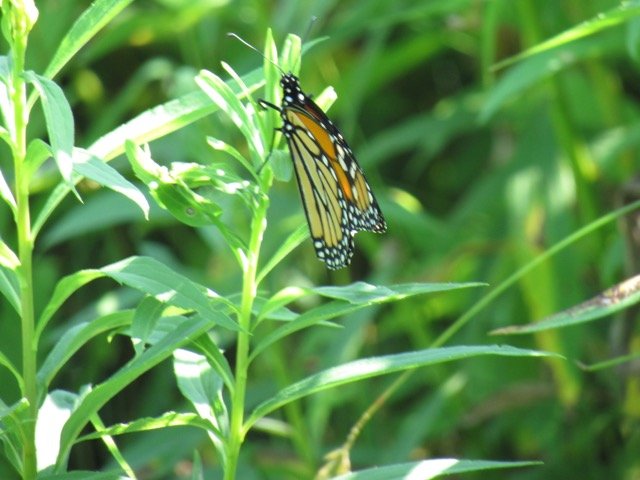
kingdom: Animalia
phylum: Arthropoda
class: Insecta
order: Lepidoptera
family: Nymphalidae
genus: Danaus
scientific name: Danaus plexippus
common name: Monarch
